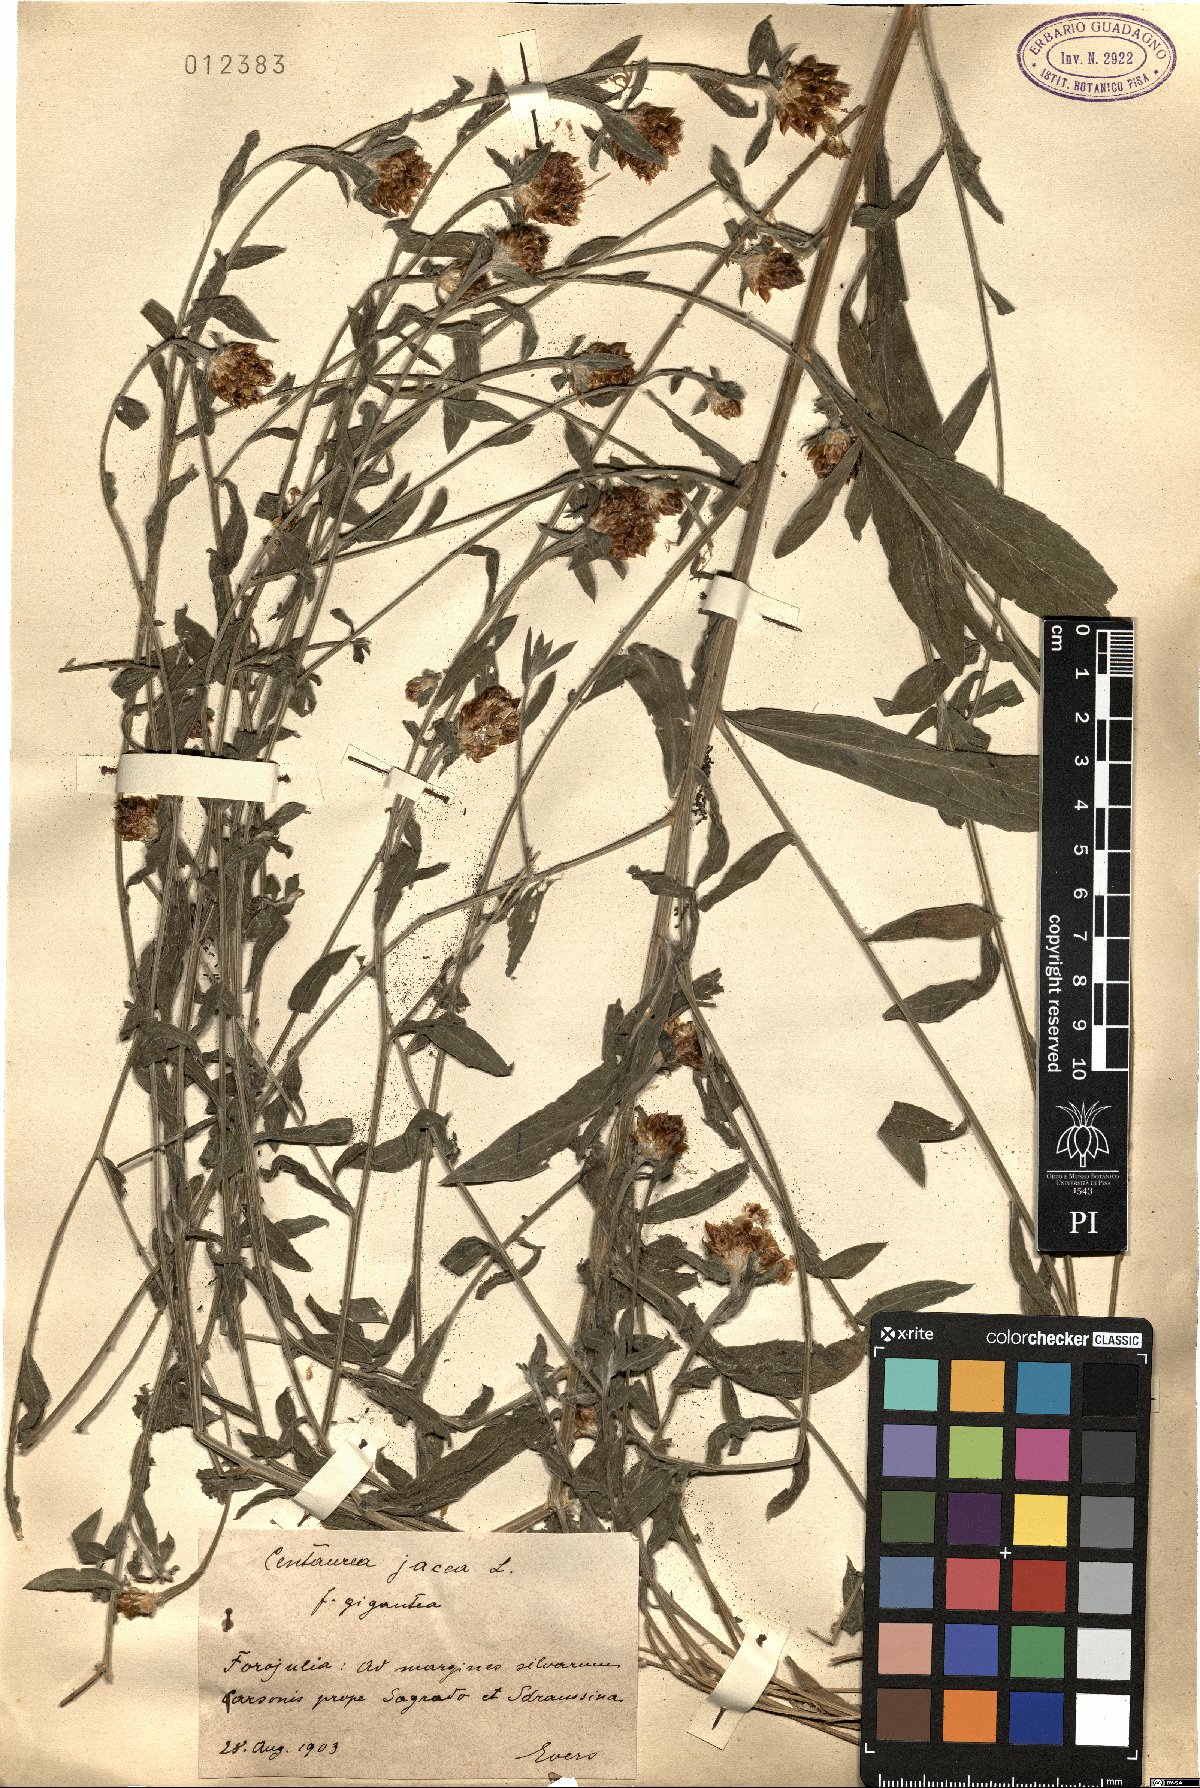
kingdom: Plantae
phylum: Tracheophyta
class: Magnoliopsida
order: Asterales
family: Asteraceae
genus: Centaurea
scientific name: Centaurea jacea
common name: Brown knapweed
